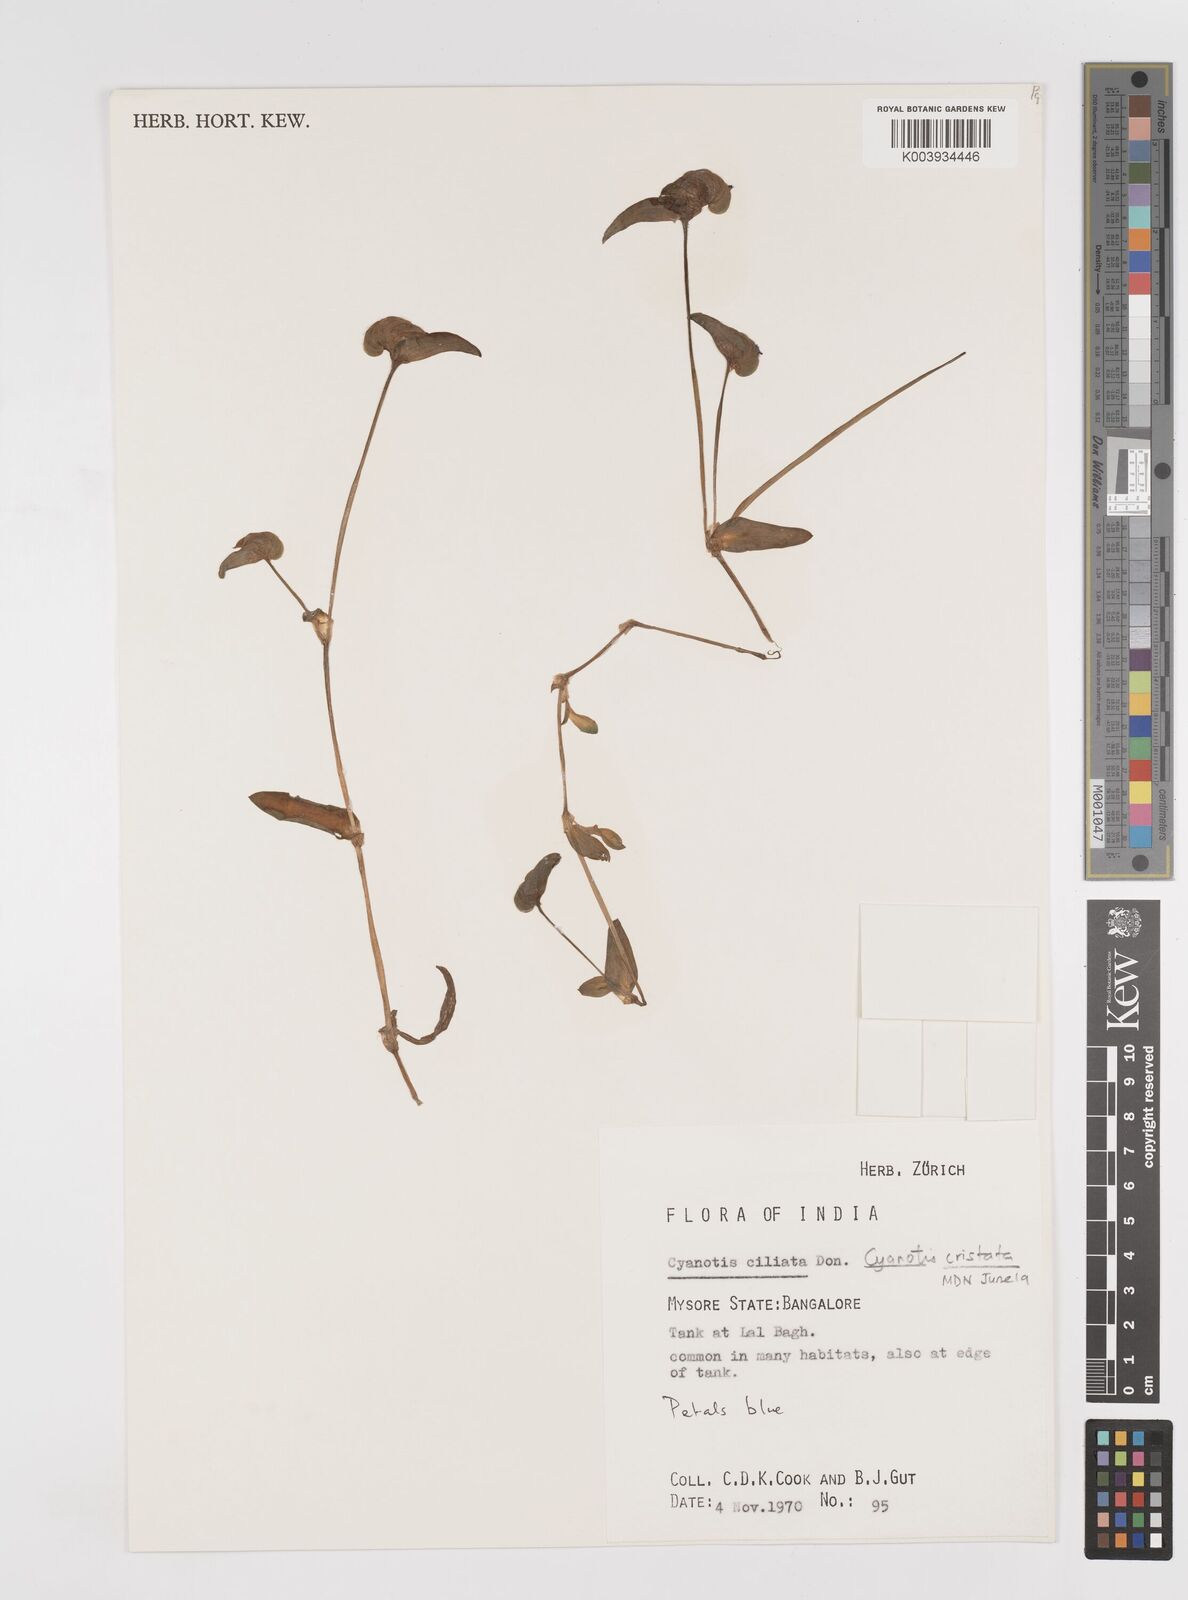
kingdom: Plantae
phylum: Tracheophyta
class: Liliopsida
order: Commelinales
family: Commelinaceae
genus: Cyanotis
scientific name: Cyanotis cristata
